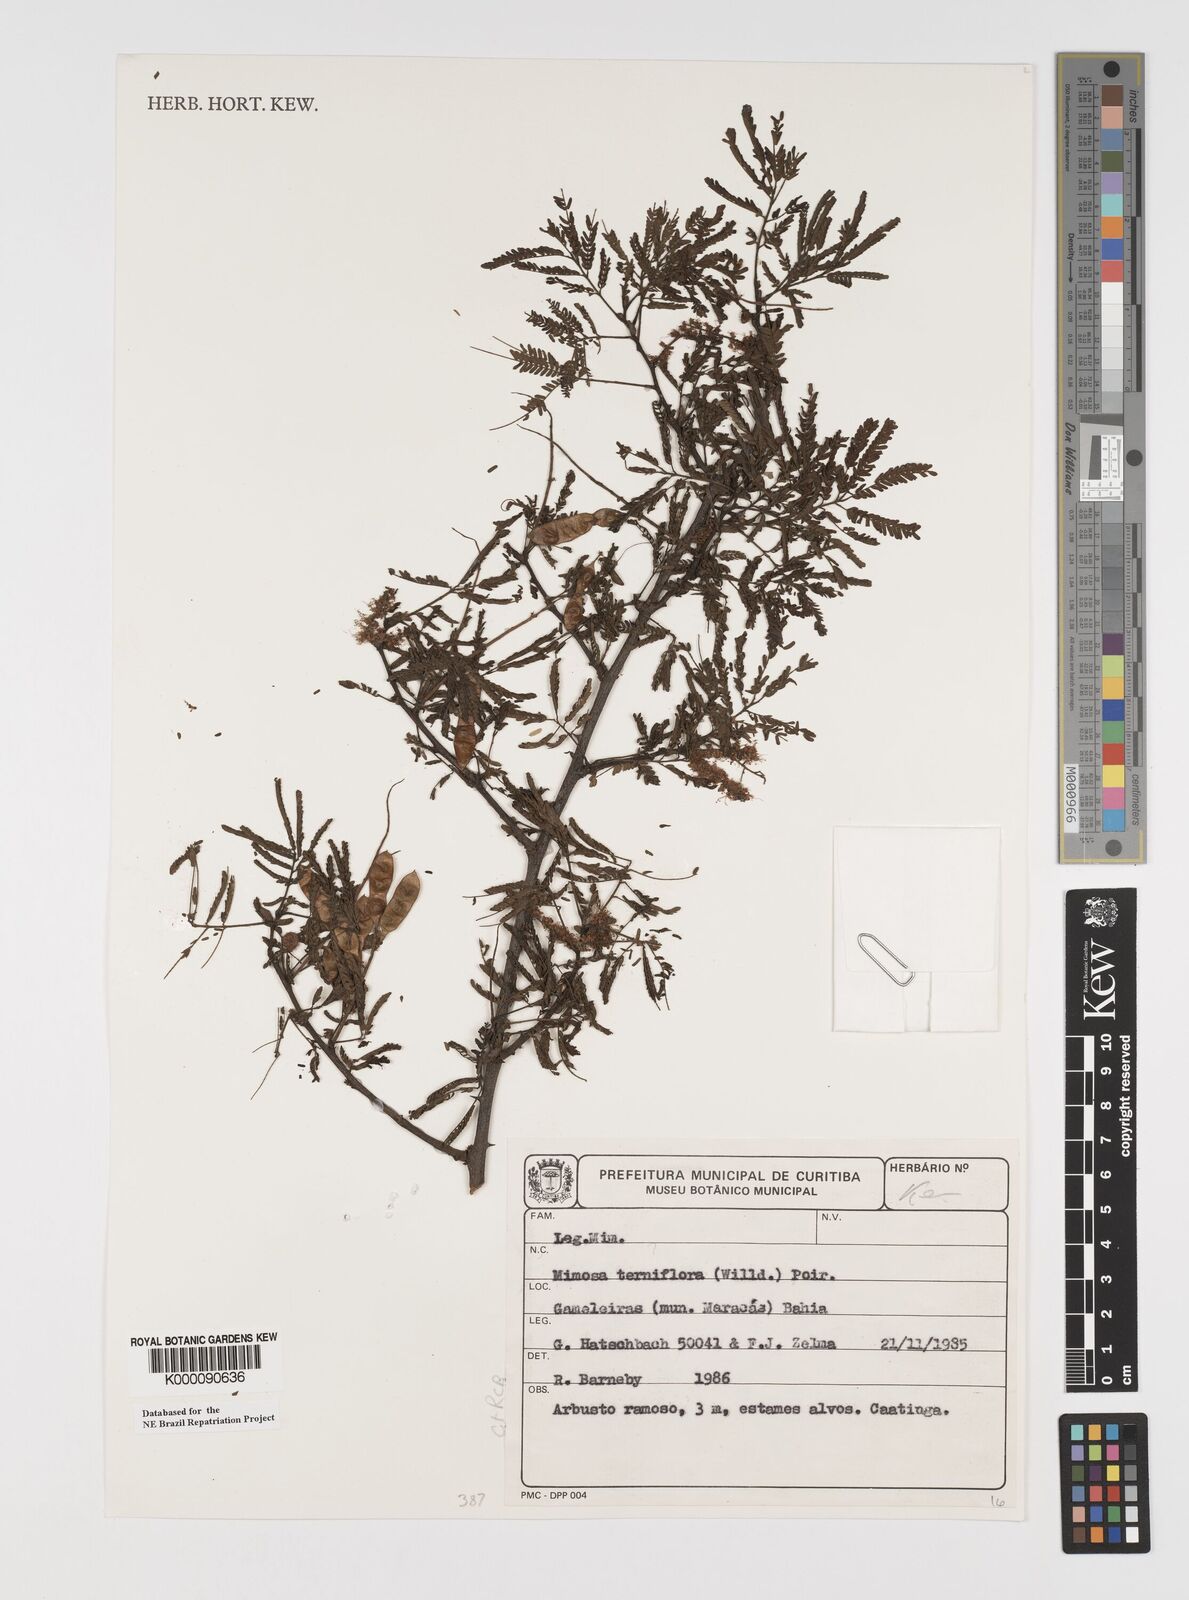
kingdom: Plantae
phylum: Tracheophyta
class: Magnoliopsida
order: Fabales
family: Fabaceae
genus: Mimosa
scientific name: Mimosa tenuiflora
